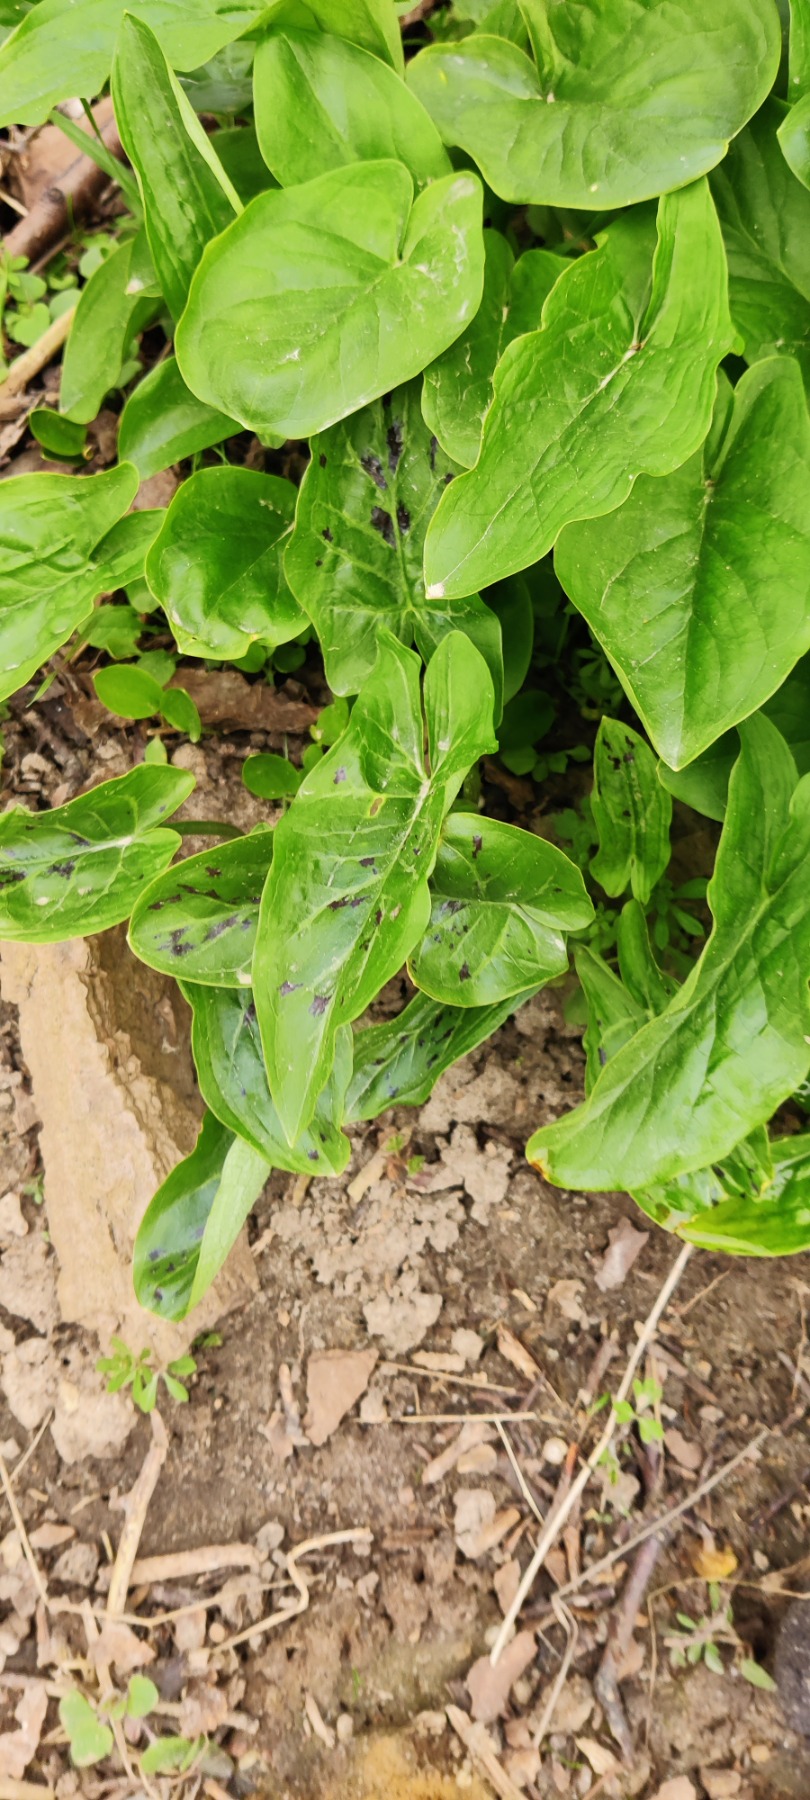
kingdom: Plantae
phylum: Tracheophyta
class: Liliopsida
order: Alismatales
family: Araceae
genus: Arum
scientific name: Arum maculatum
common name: Plettet arum
